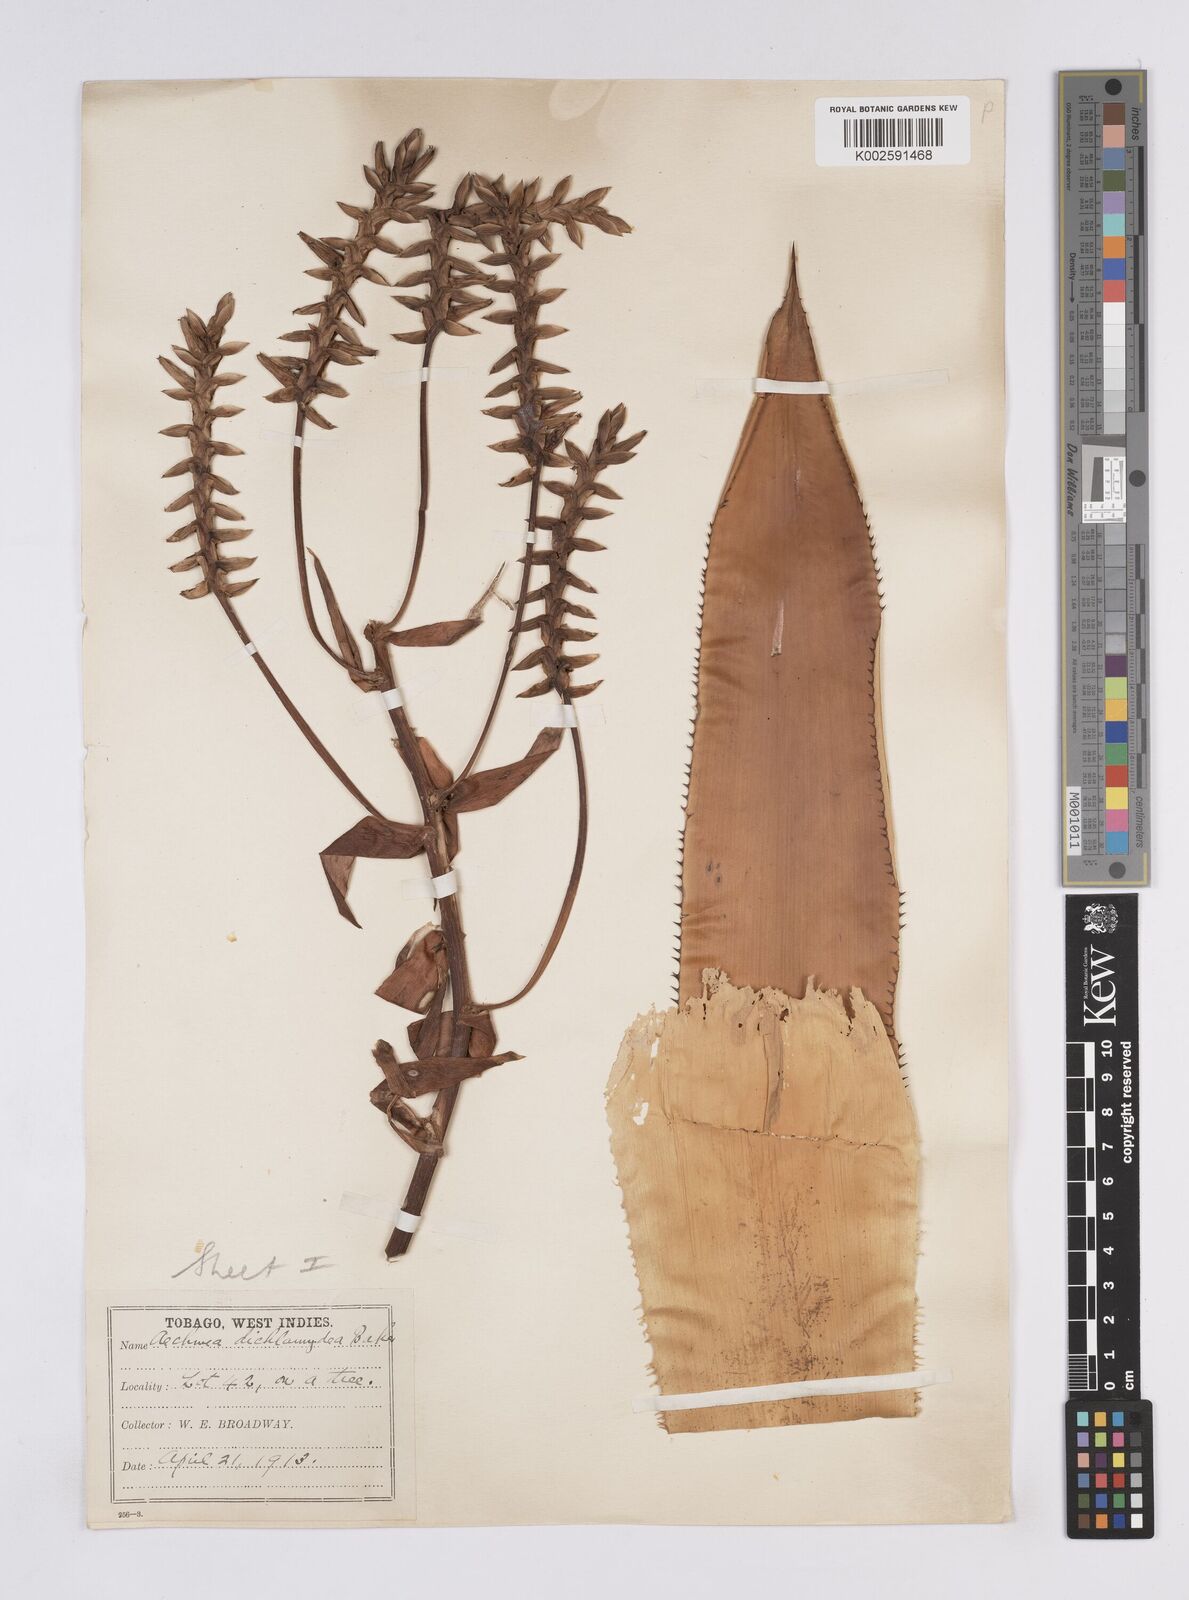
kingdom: Plantae
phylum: Tracheophyta
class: Liliopsida
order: Poales
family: Bromeliaceae
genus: Aechmea
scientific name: Aechmea dichlamydea
